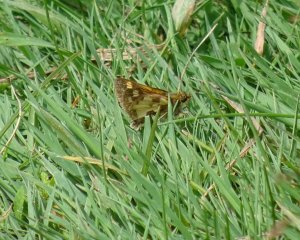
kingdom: Animalia
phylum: Arthropoda
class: Insecta
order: Lepidoptera
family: Hesperiidae
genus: Polites
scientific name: Polites coras
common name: Peck's Skipper
